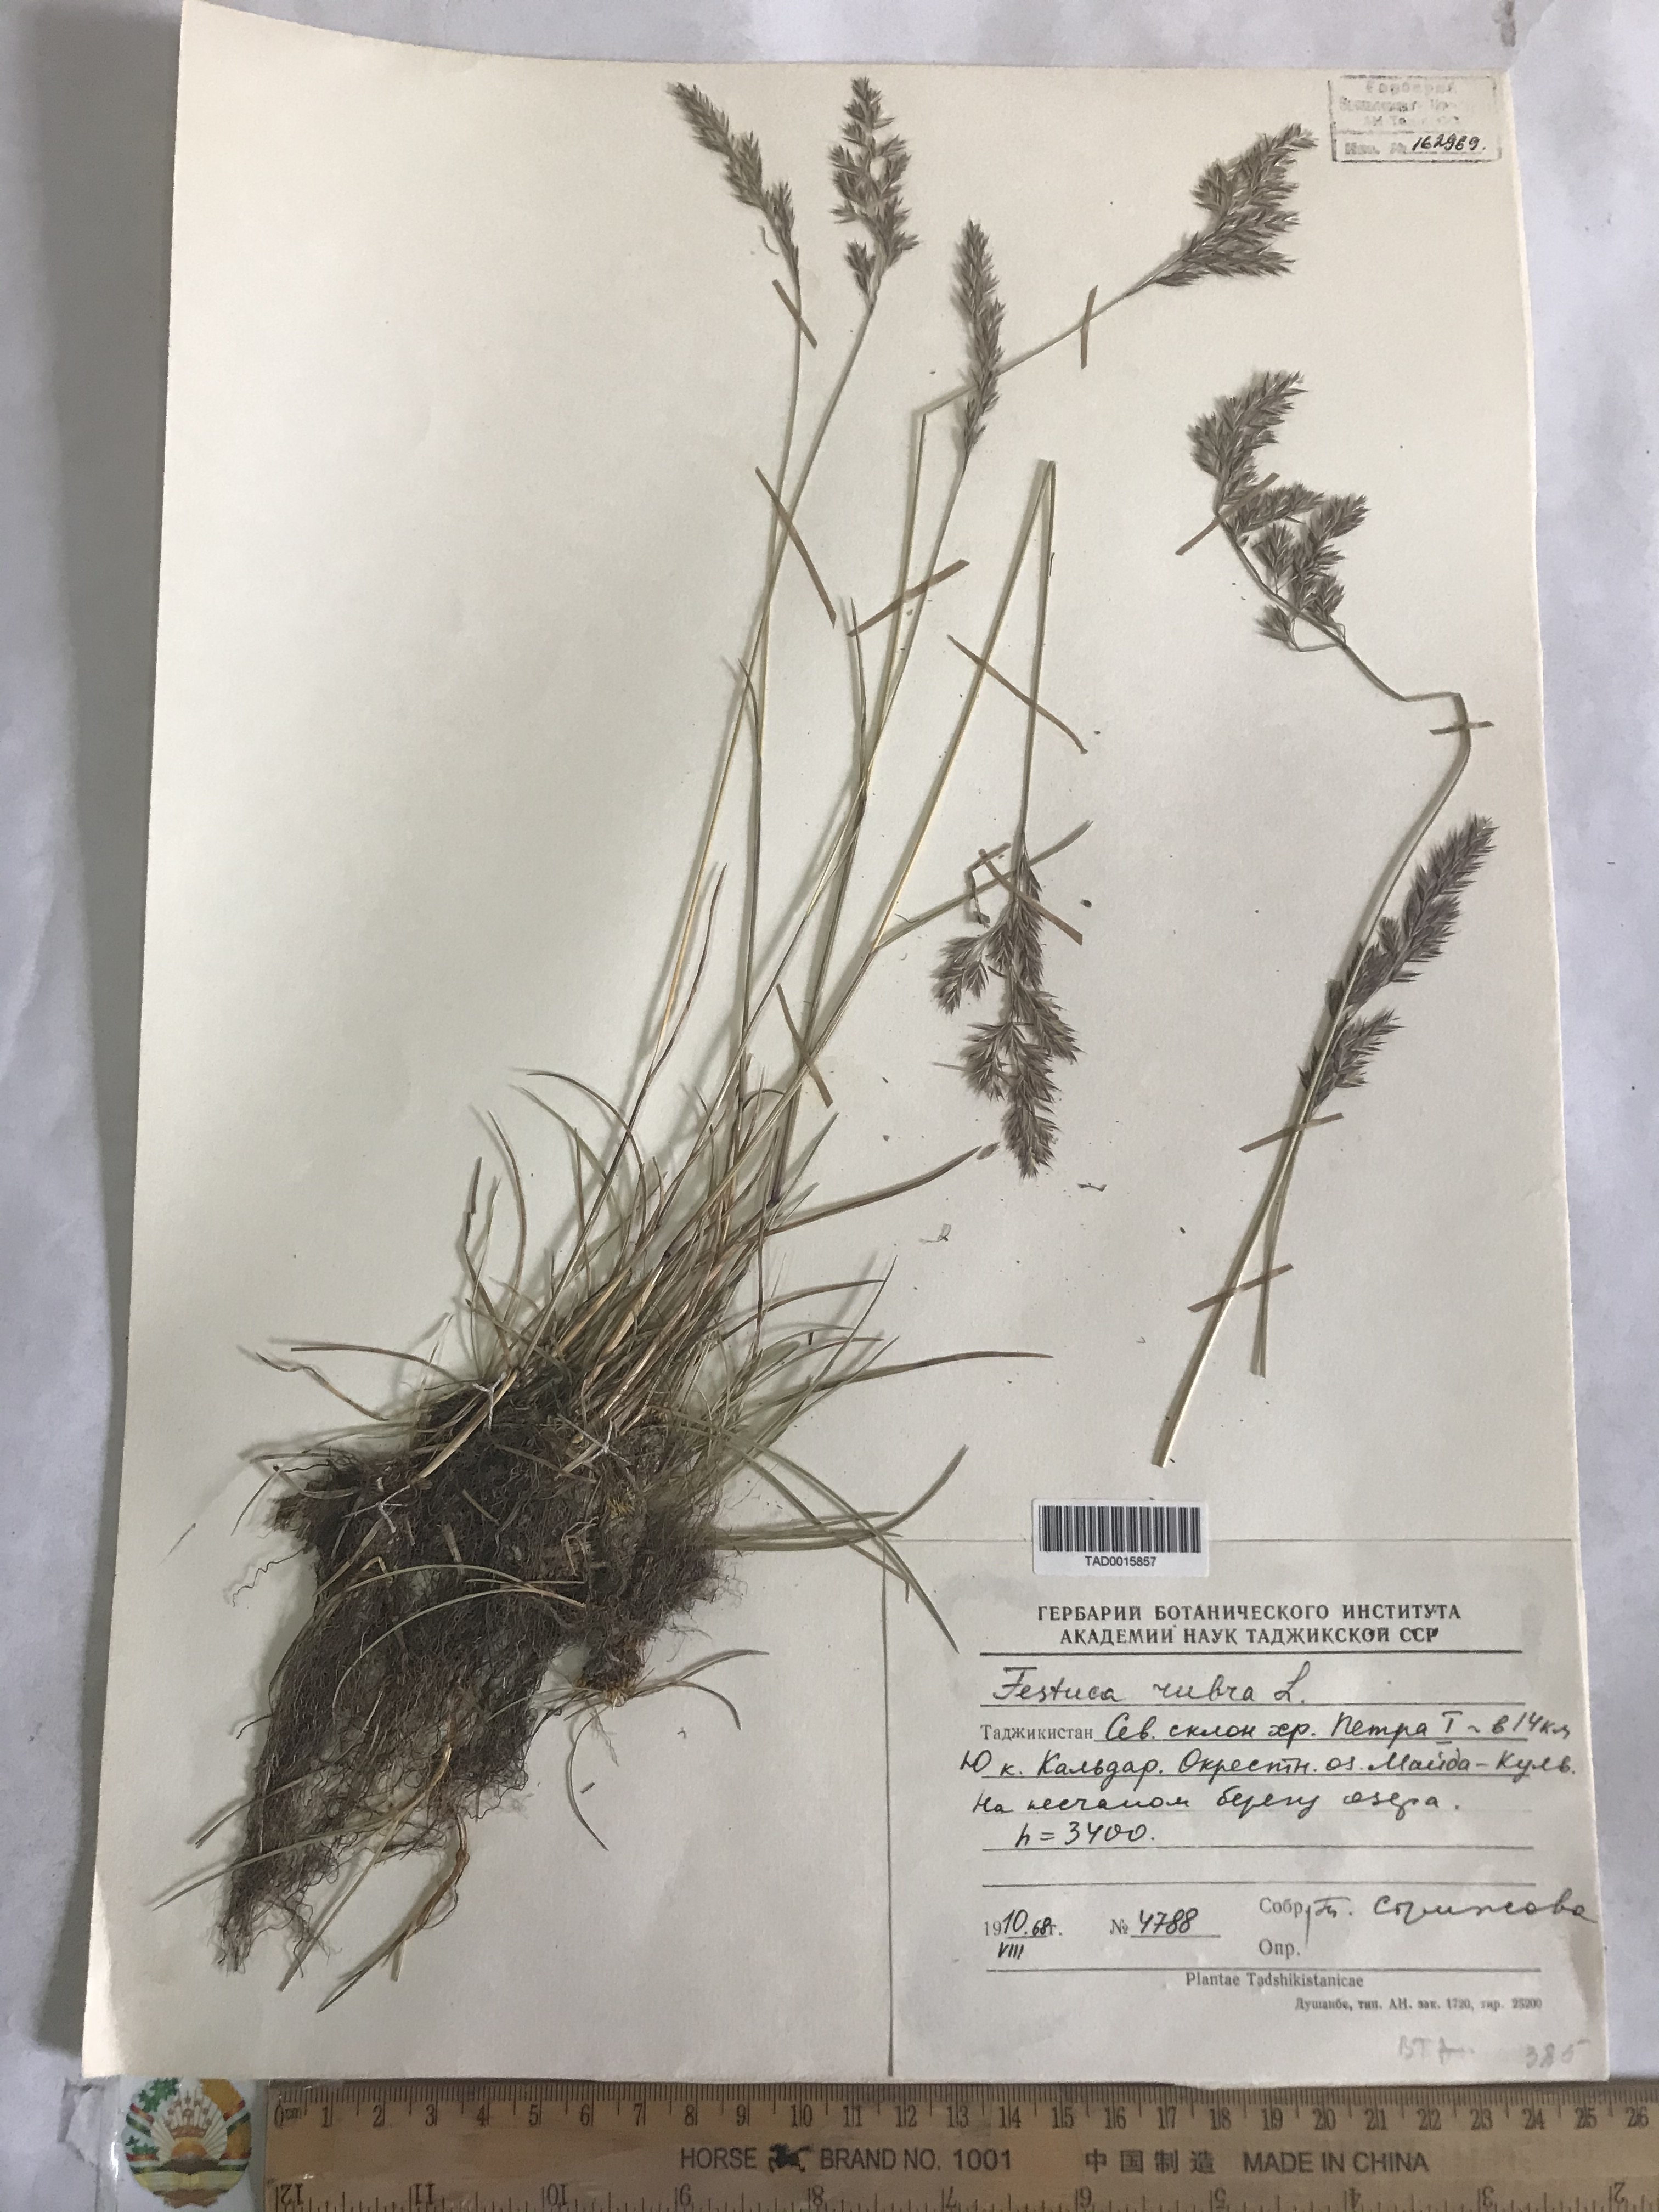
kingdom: Plantae
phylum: Tracheophyta
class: Liliopsida
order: Poales
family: Poaceae
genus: Festuca
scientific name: Festuca rubra
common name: Red fescue
